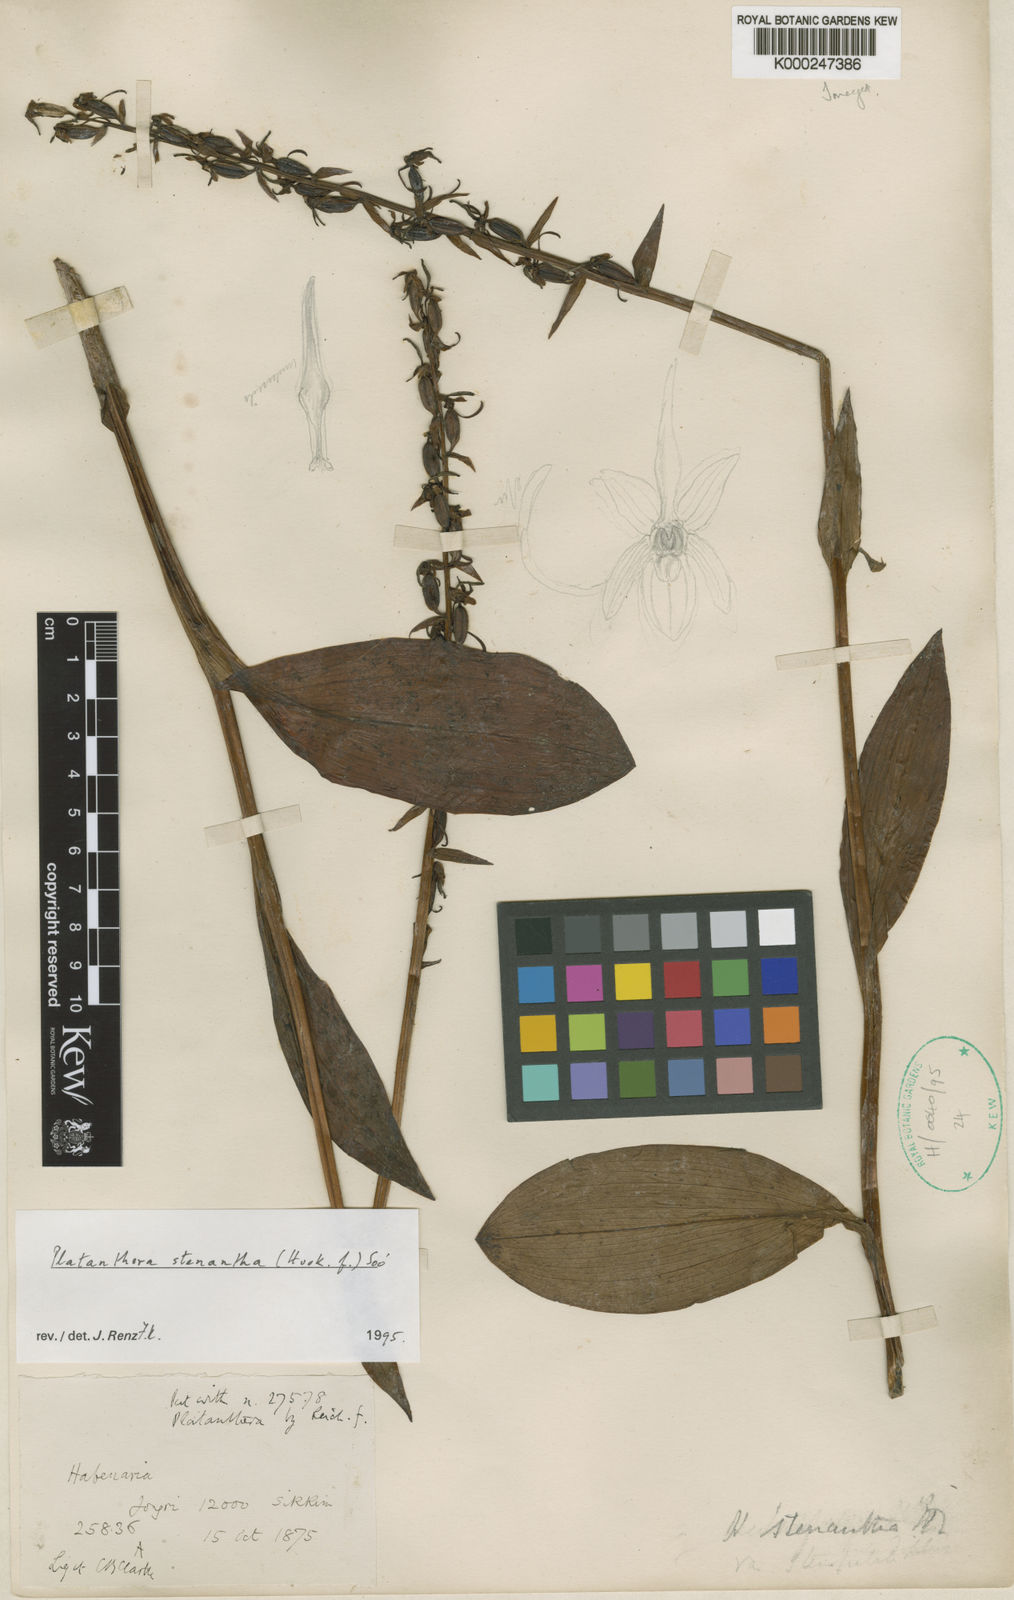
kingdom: Plantae
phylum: Tracheophyta
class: Liliopsida
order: Asparagales
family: Orchidaceae
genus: Platanthera
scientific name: Platanthera
